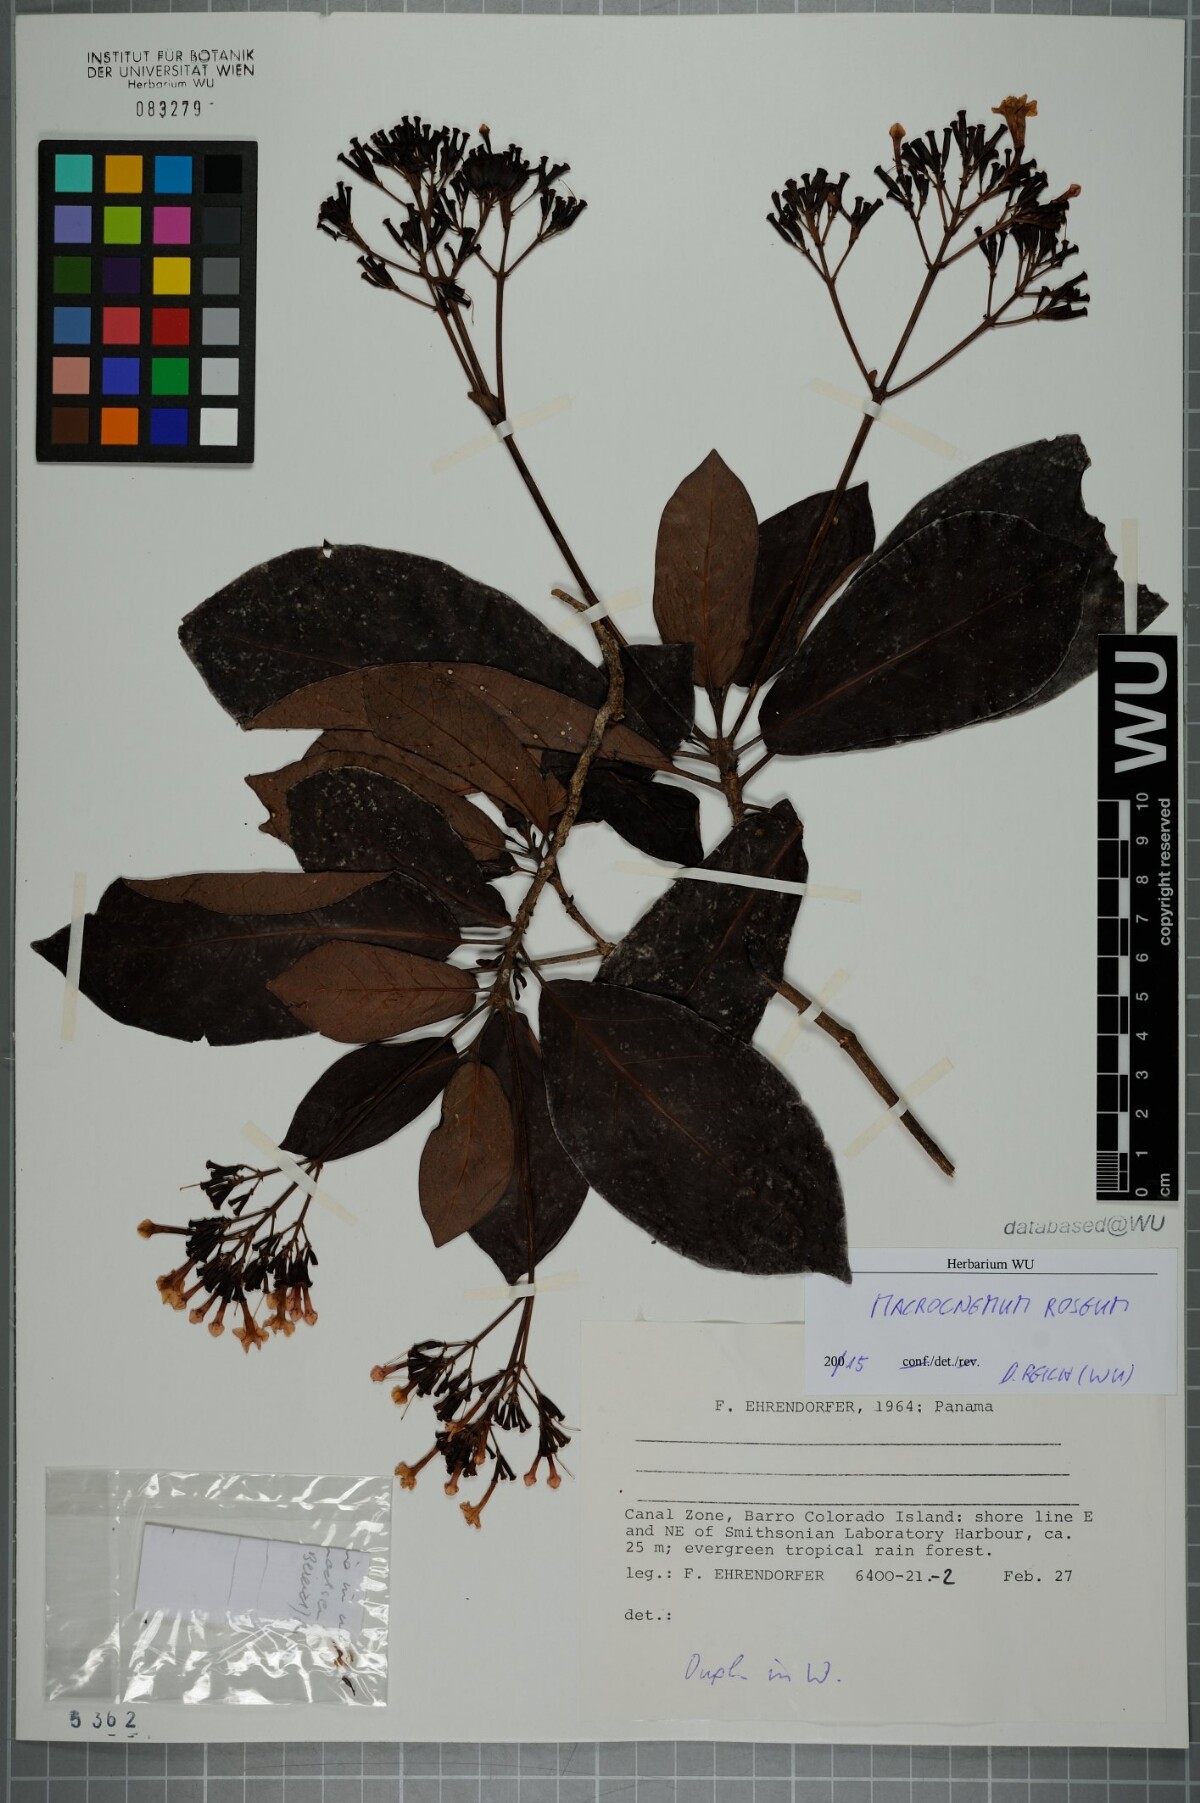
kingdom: Plantae
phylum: Tracheophyta
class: Magnoliopsida
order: Gentianales
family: Rubiaceae
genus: Macrocnemum
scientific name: Macrocnemum roseum
